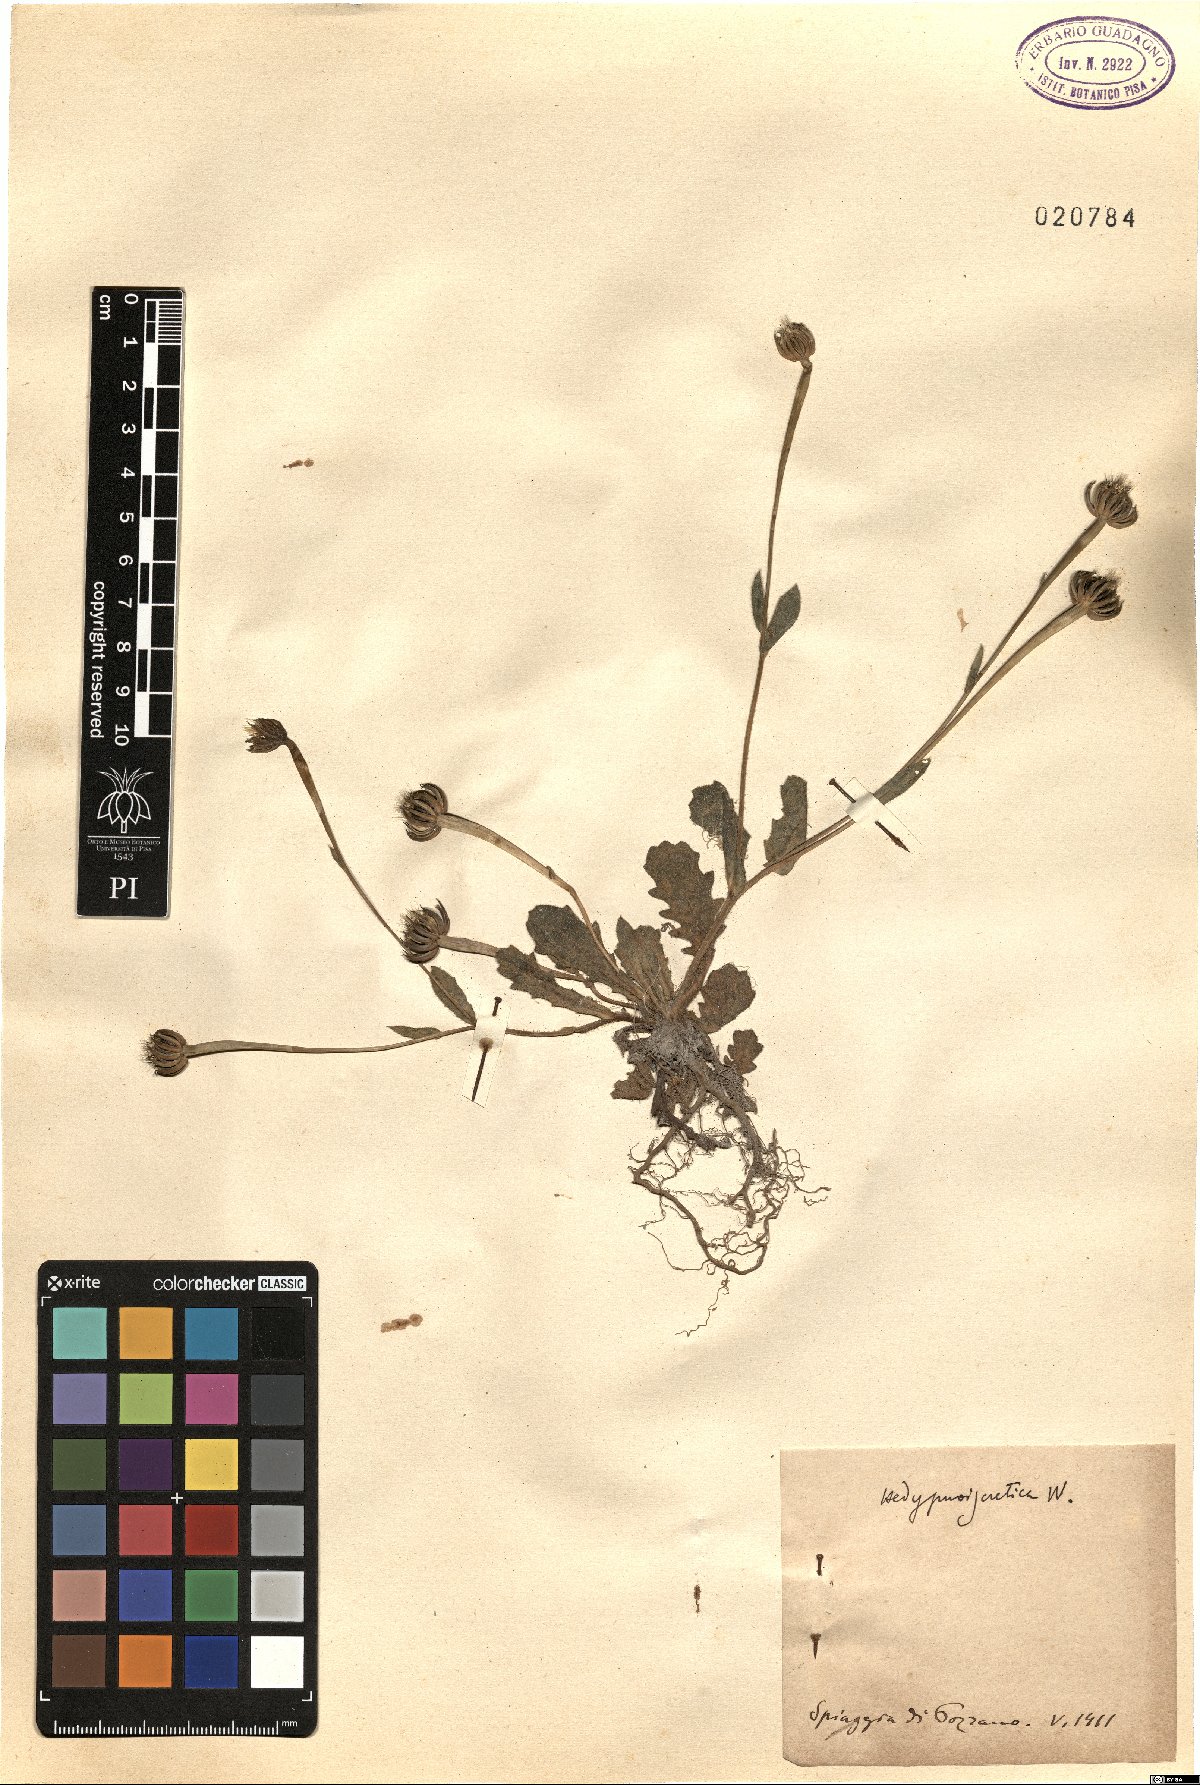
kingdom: Plantae
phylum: Tracheophyta
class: Magnoliopsida
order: Asterales
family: Asteraceae
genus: Hedypnois
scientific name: Hedypnois rhagadioloides
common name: Cretan weed
